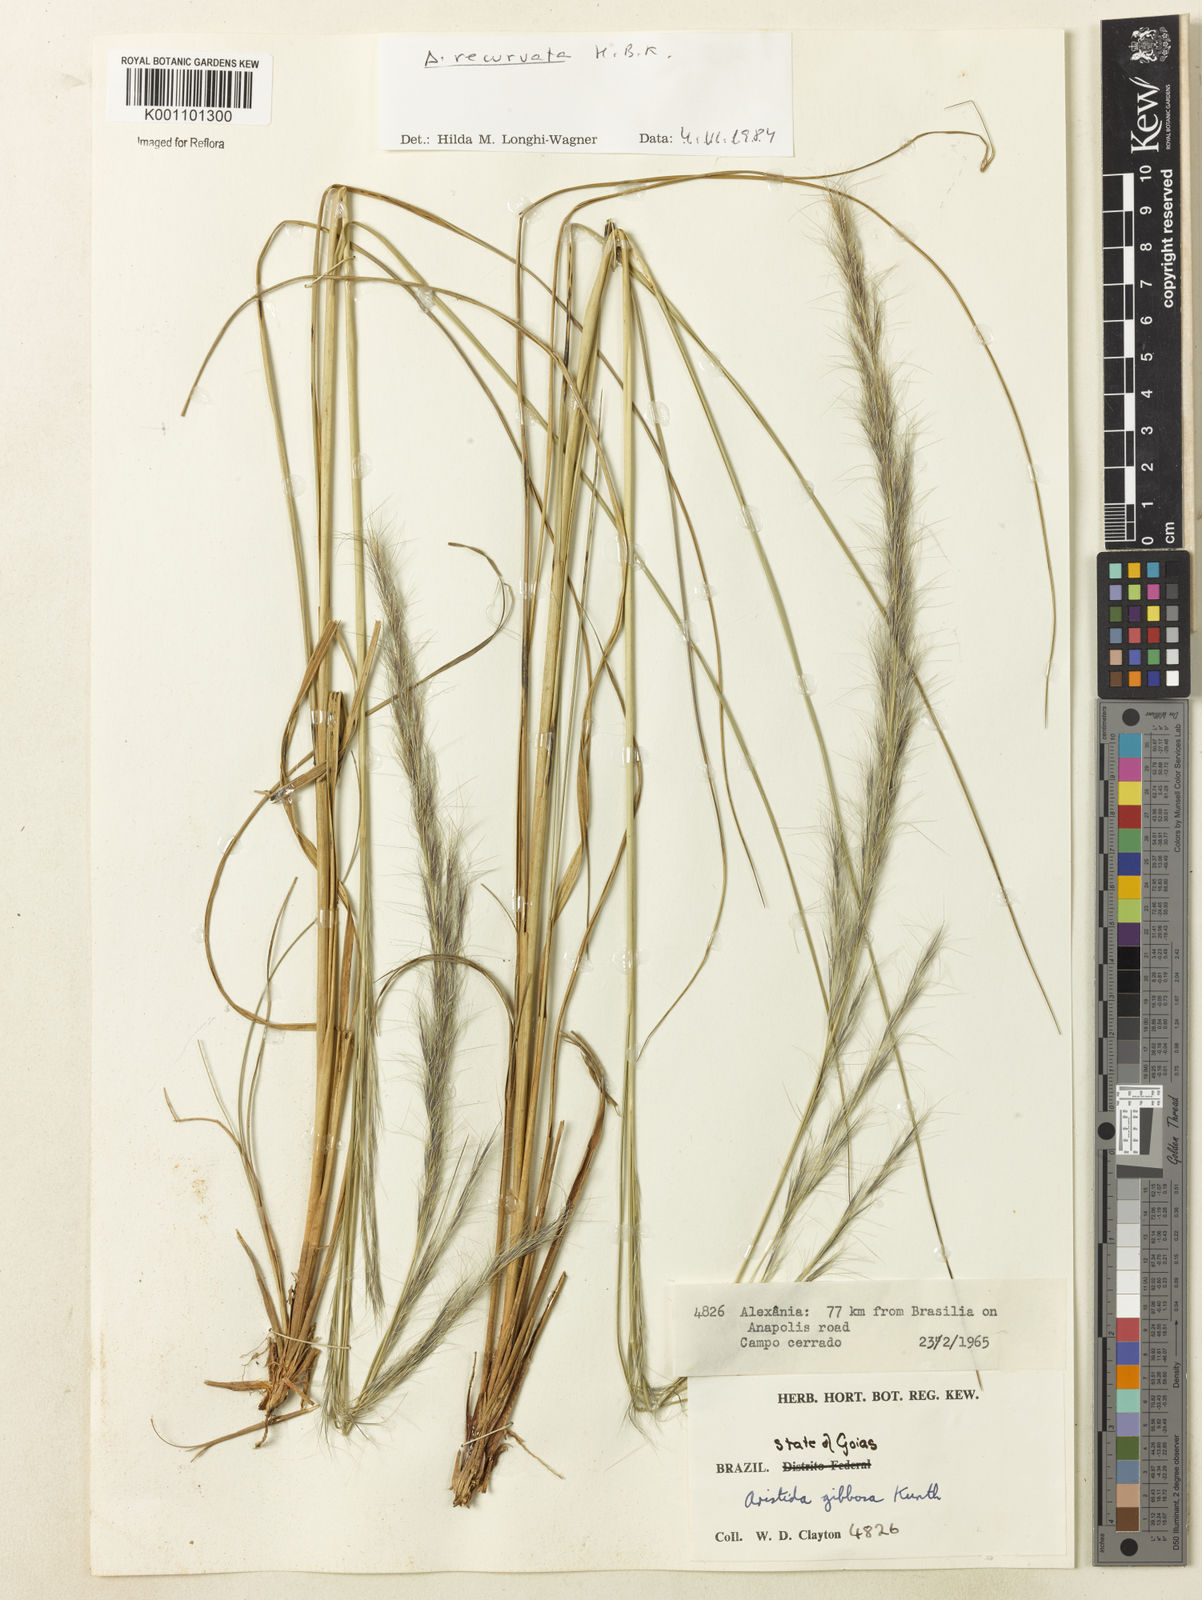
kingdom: Plantae
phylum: Tracheophyta
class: Liliopsida
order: Poales
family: Poaceae
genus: Aristida
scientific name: Aristida recurvata
